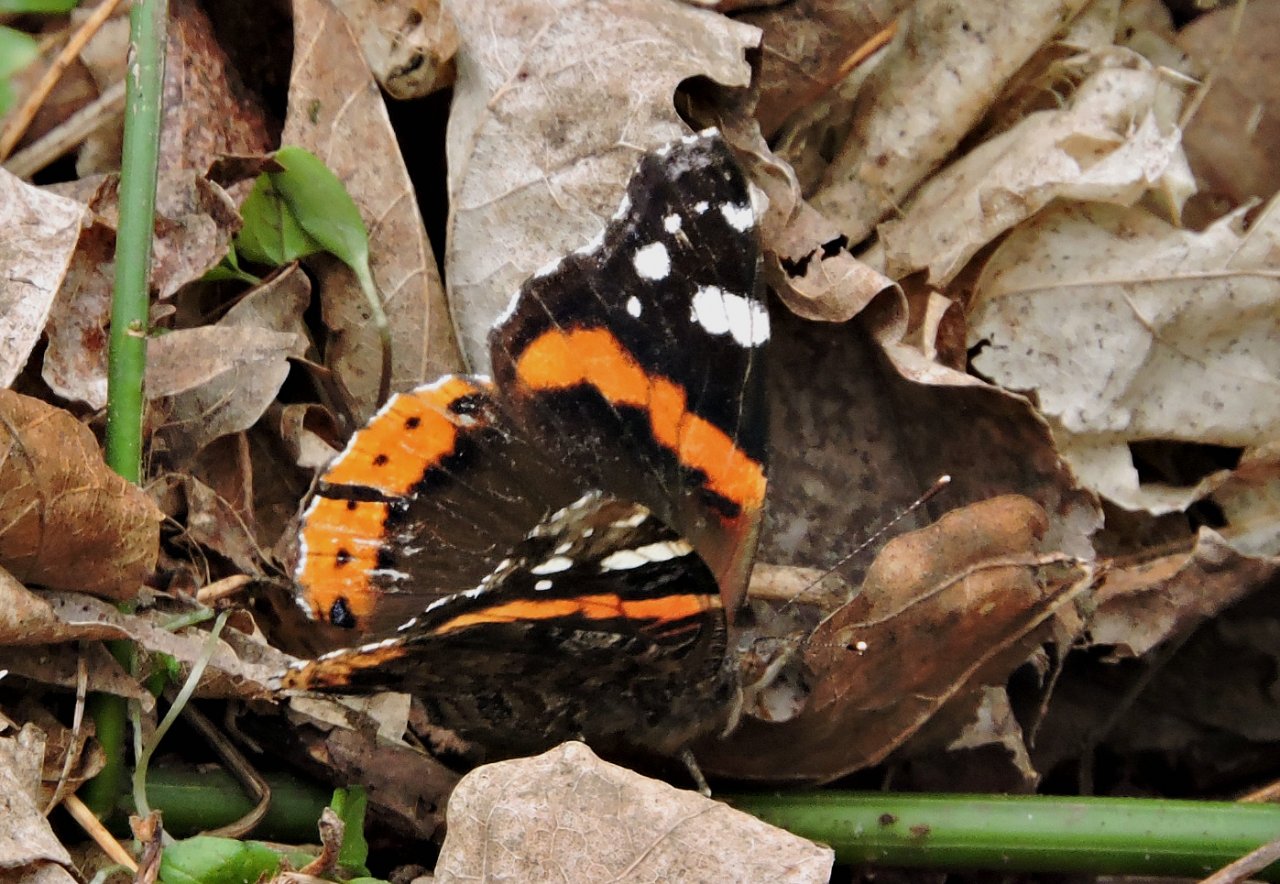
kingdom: Animalia
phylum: Arthropoda
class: Insecta
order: Lepidoptera
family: Nymphalidae
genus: Vanessa
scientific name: Vanessa atalanta
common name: Red Admiral
